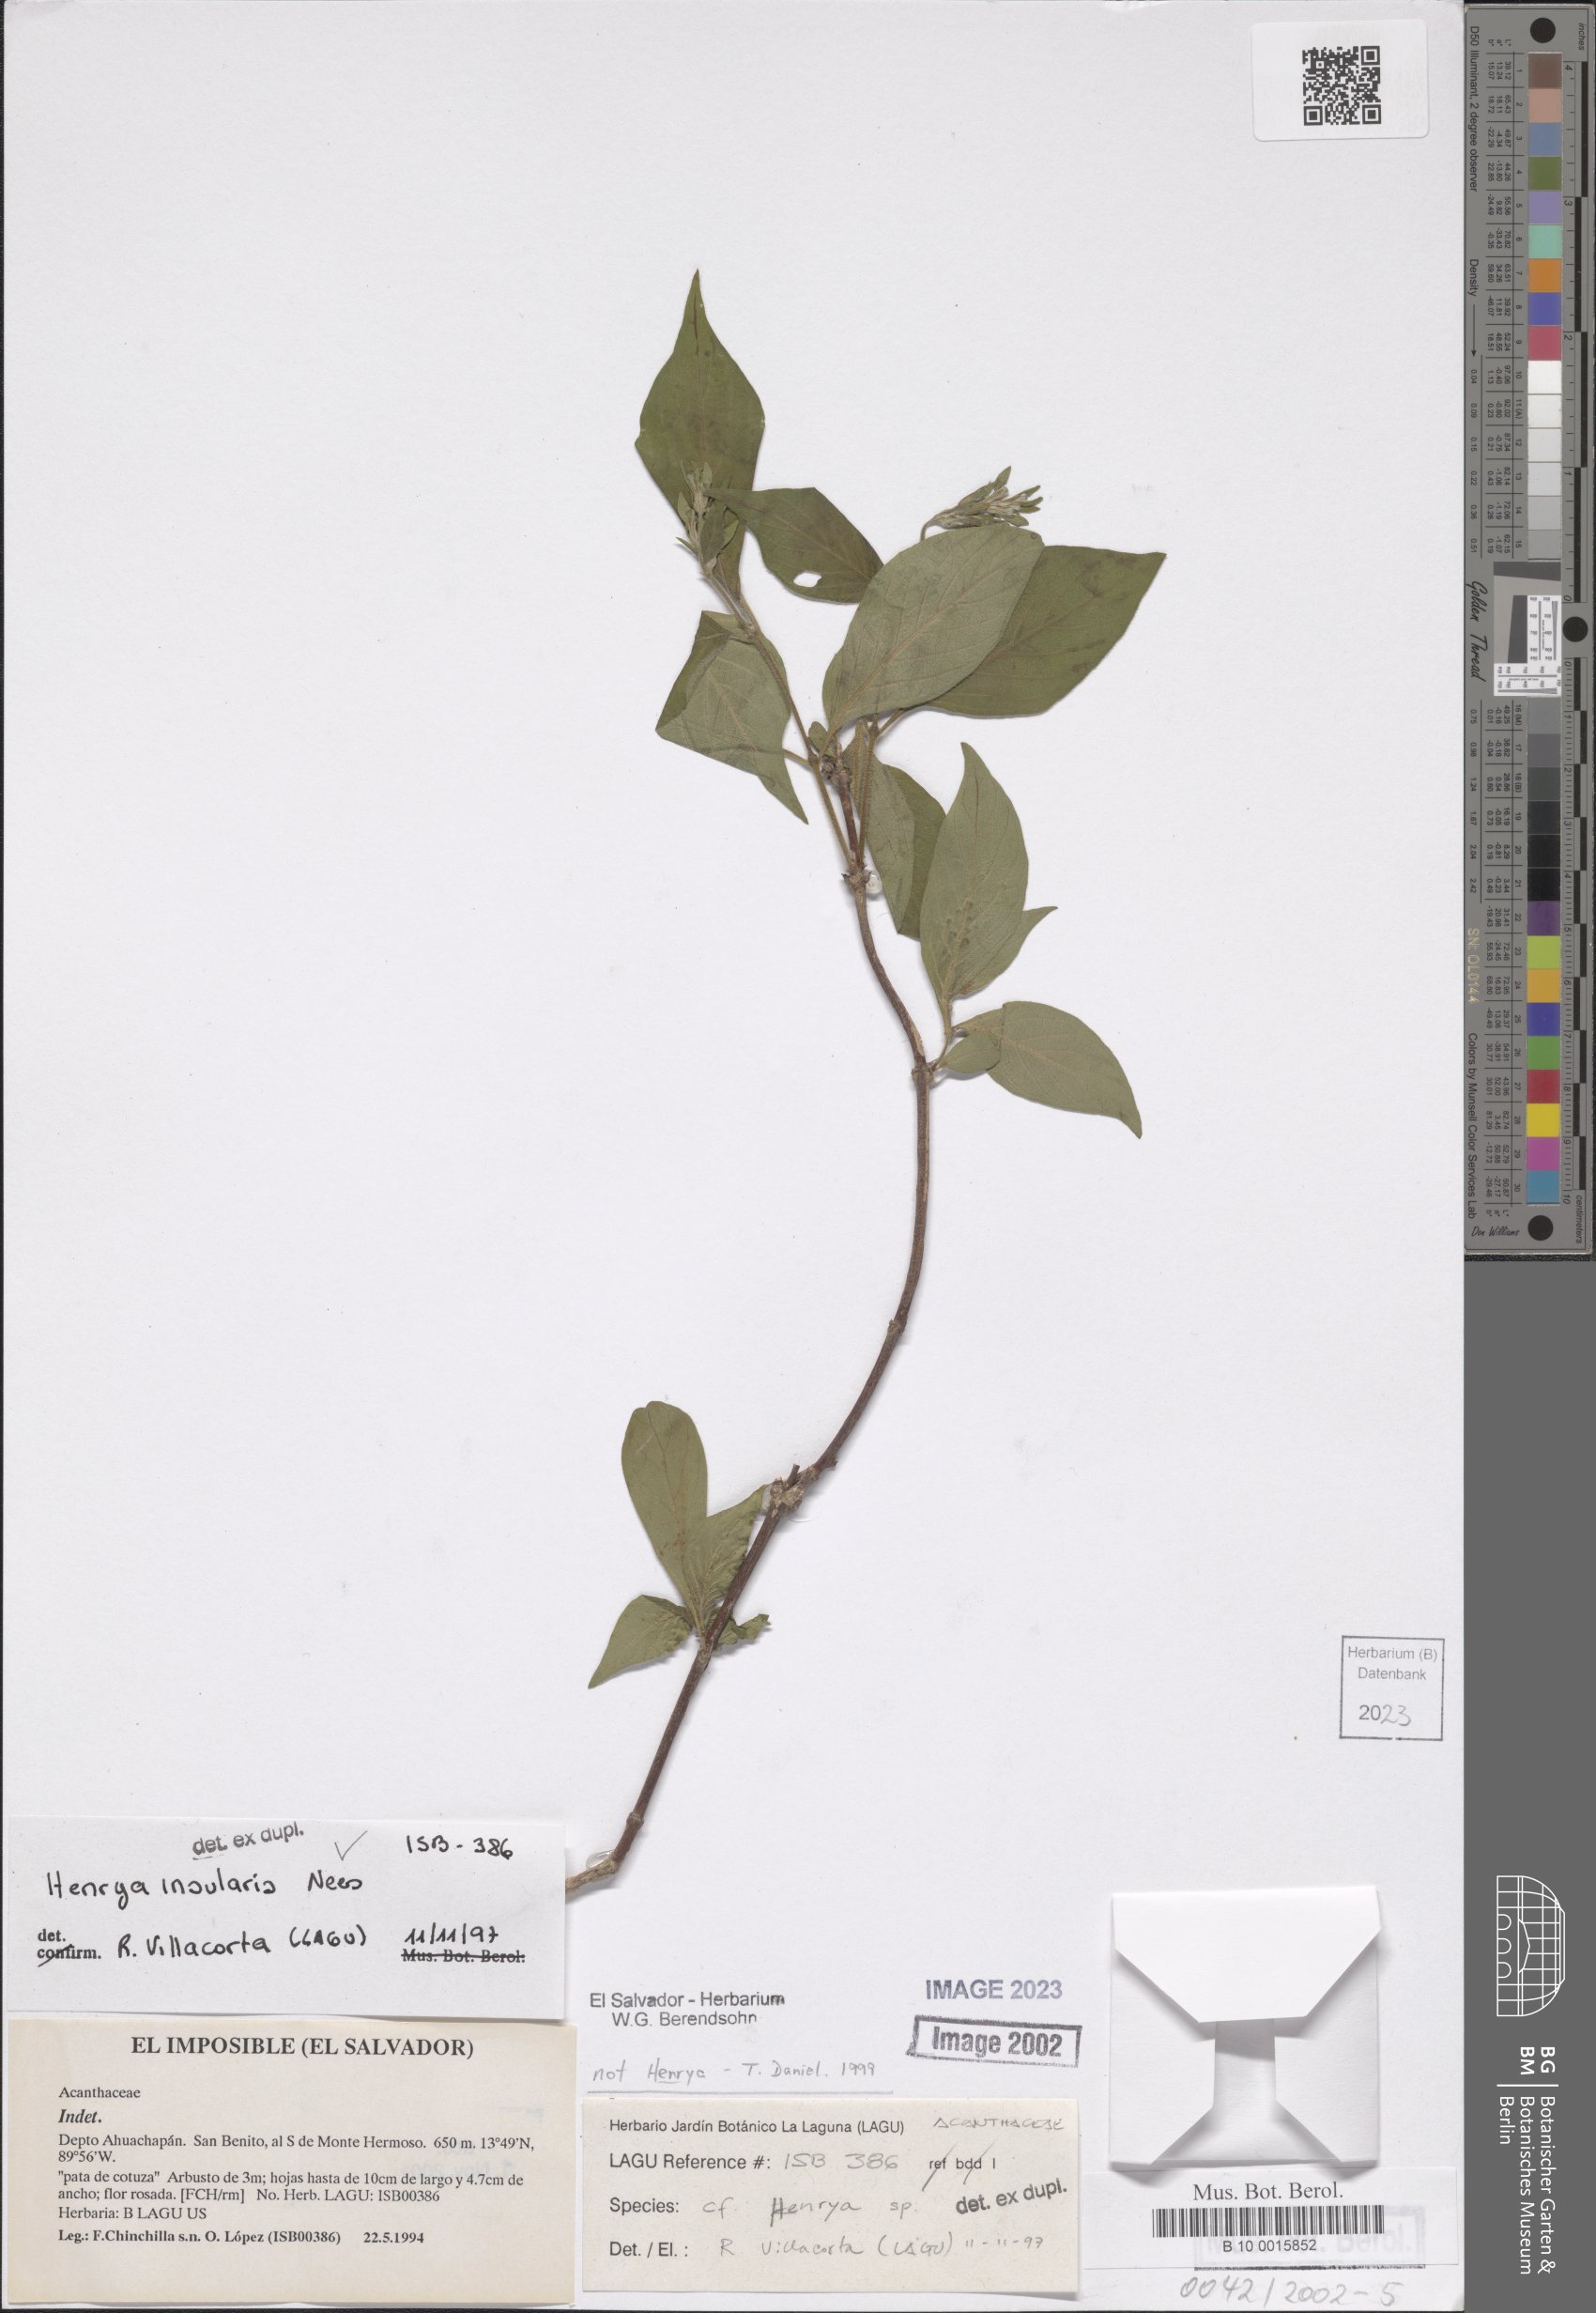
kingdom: Plantae
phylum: Tracheophyta
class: Magnoliopsida
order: Lamiales
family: Acanthaceae
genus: Henrya
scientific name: Henrya
